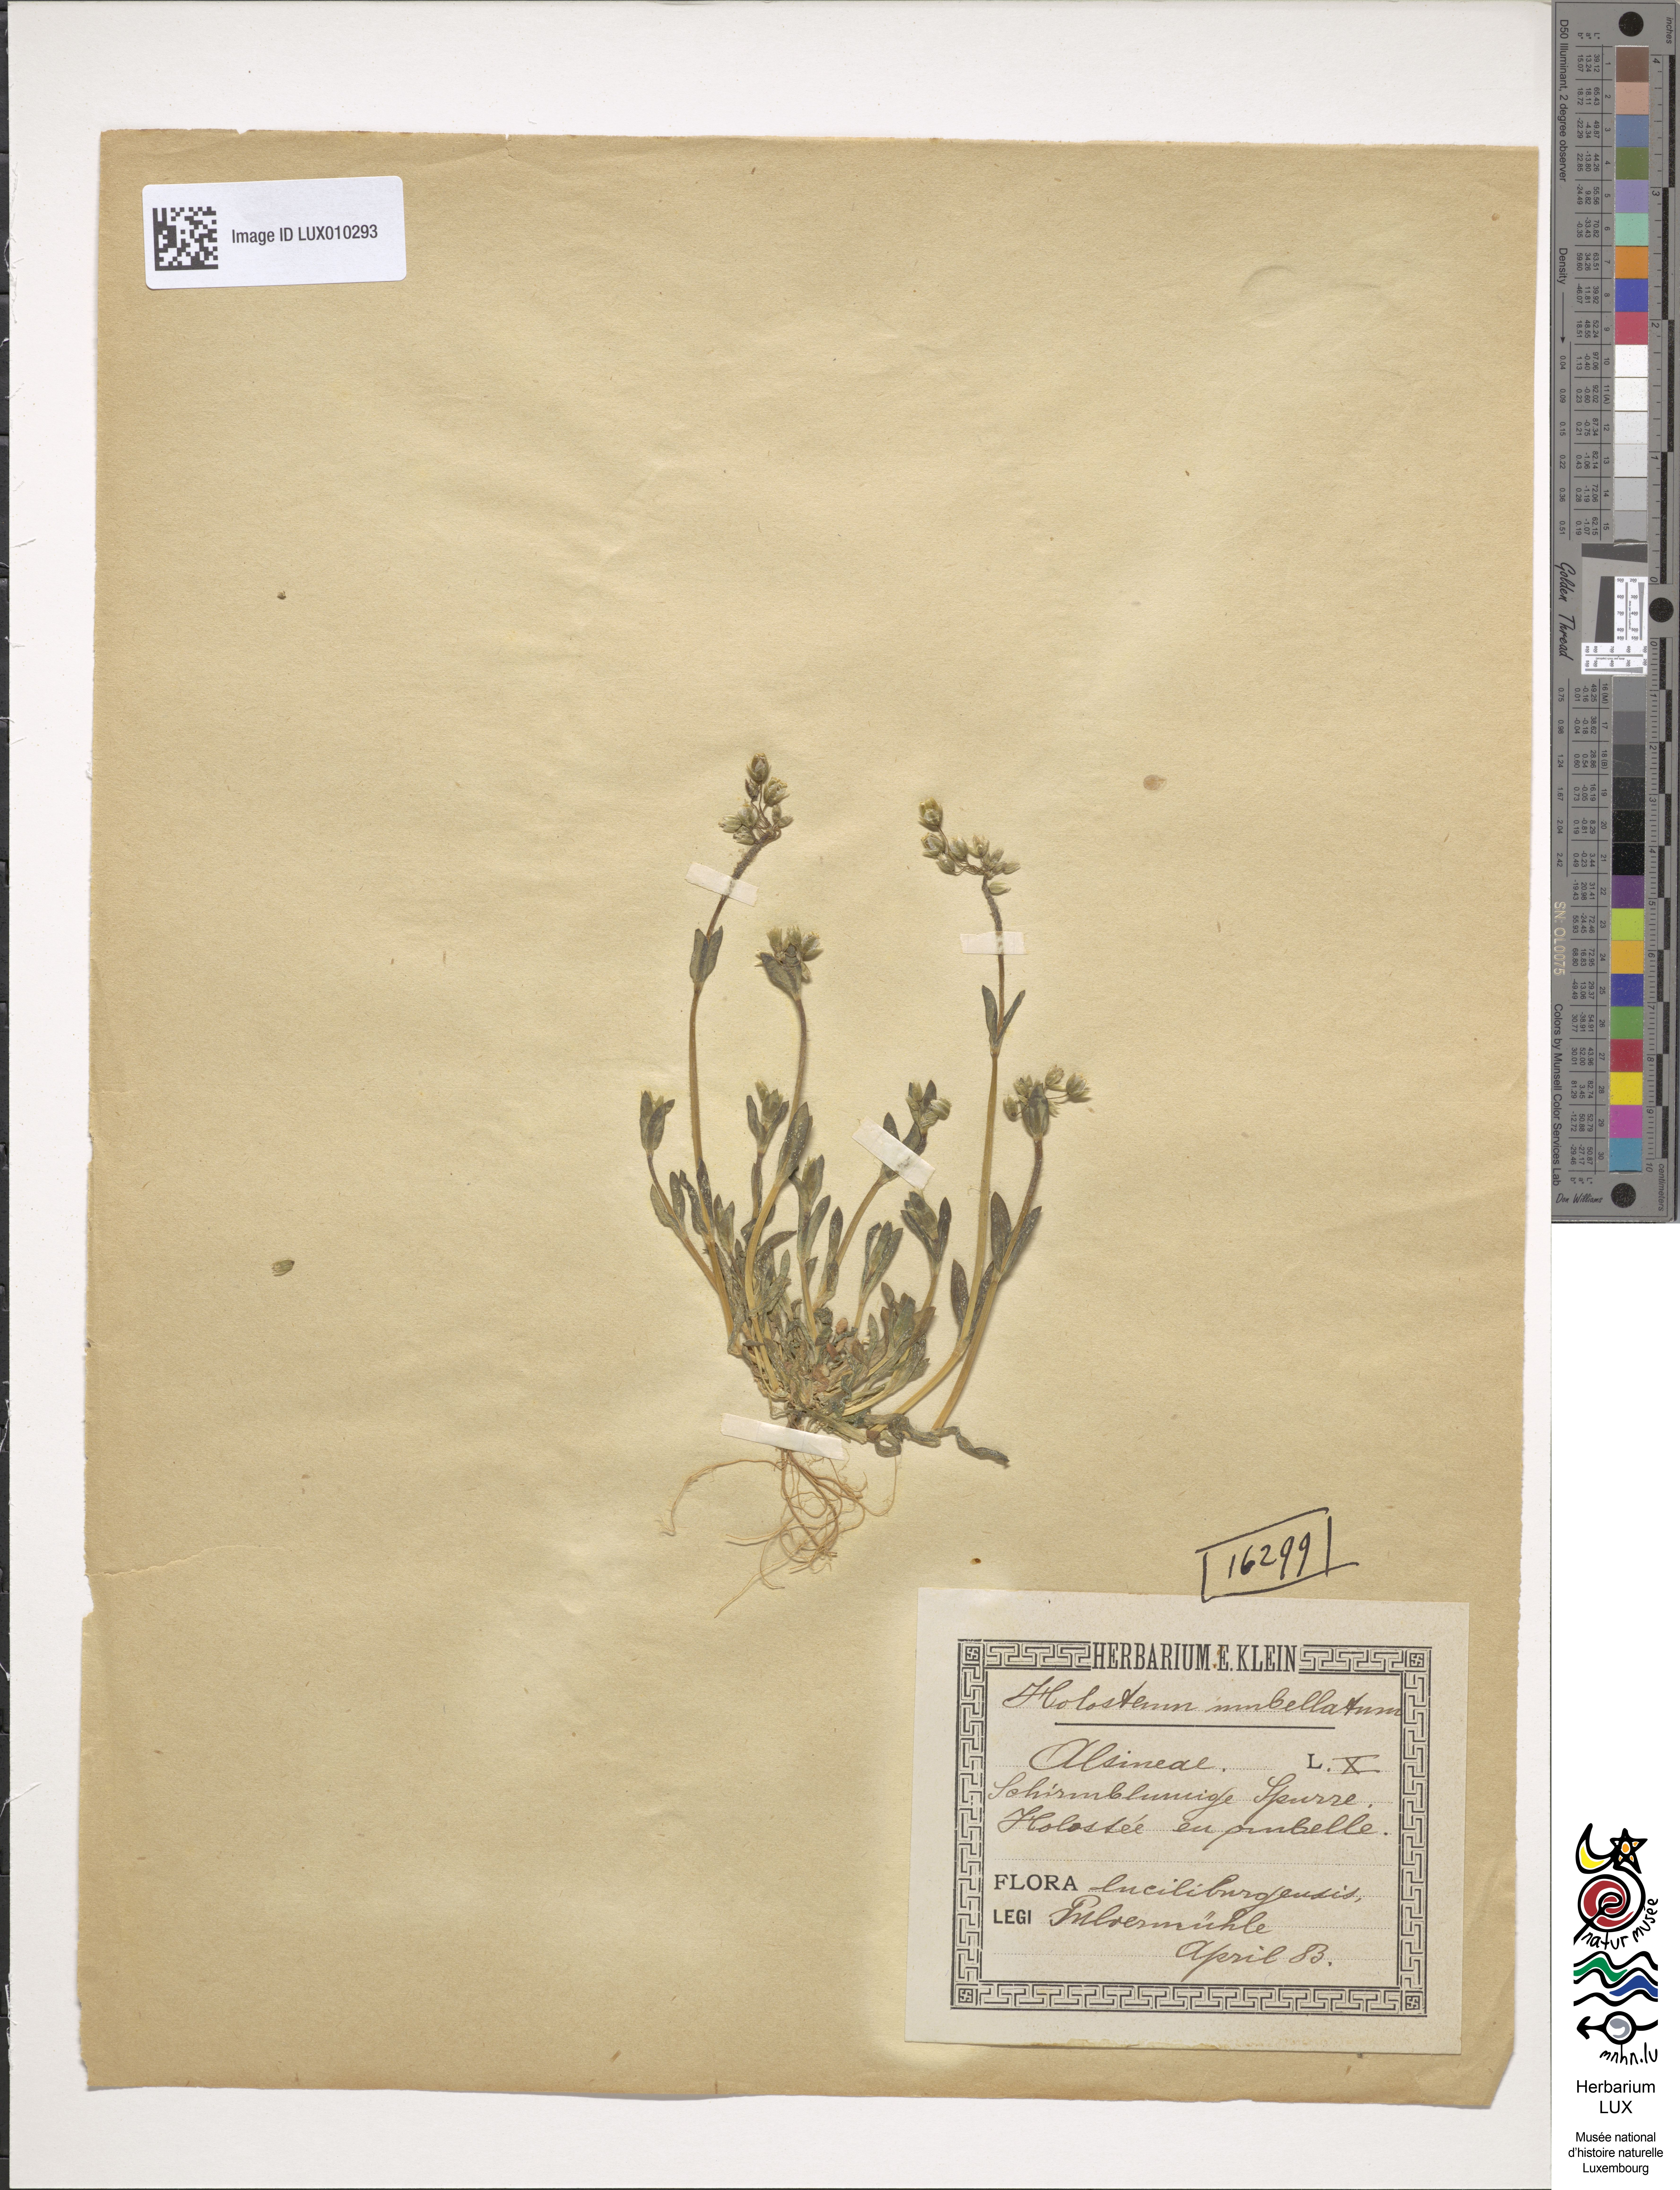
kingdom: Plantae
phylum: Tracheophyta
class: Magnoliopsida
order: Caryophyllales
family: Caryophyllaceae
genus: Holosteum
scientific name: Holosteum umbellatum
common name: Jagged chickweed
